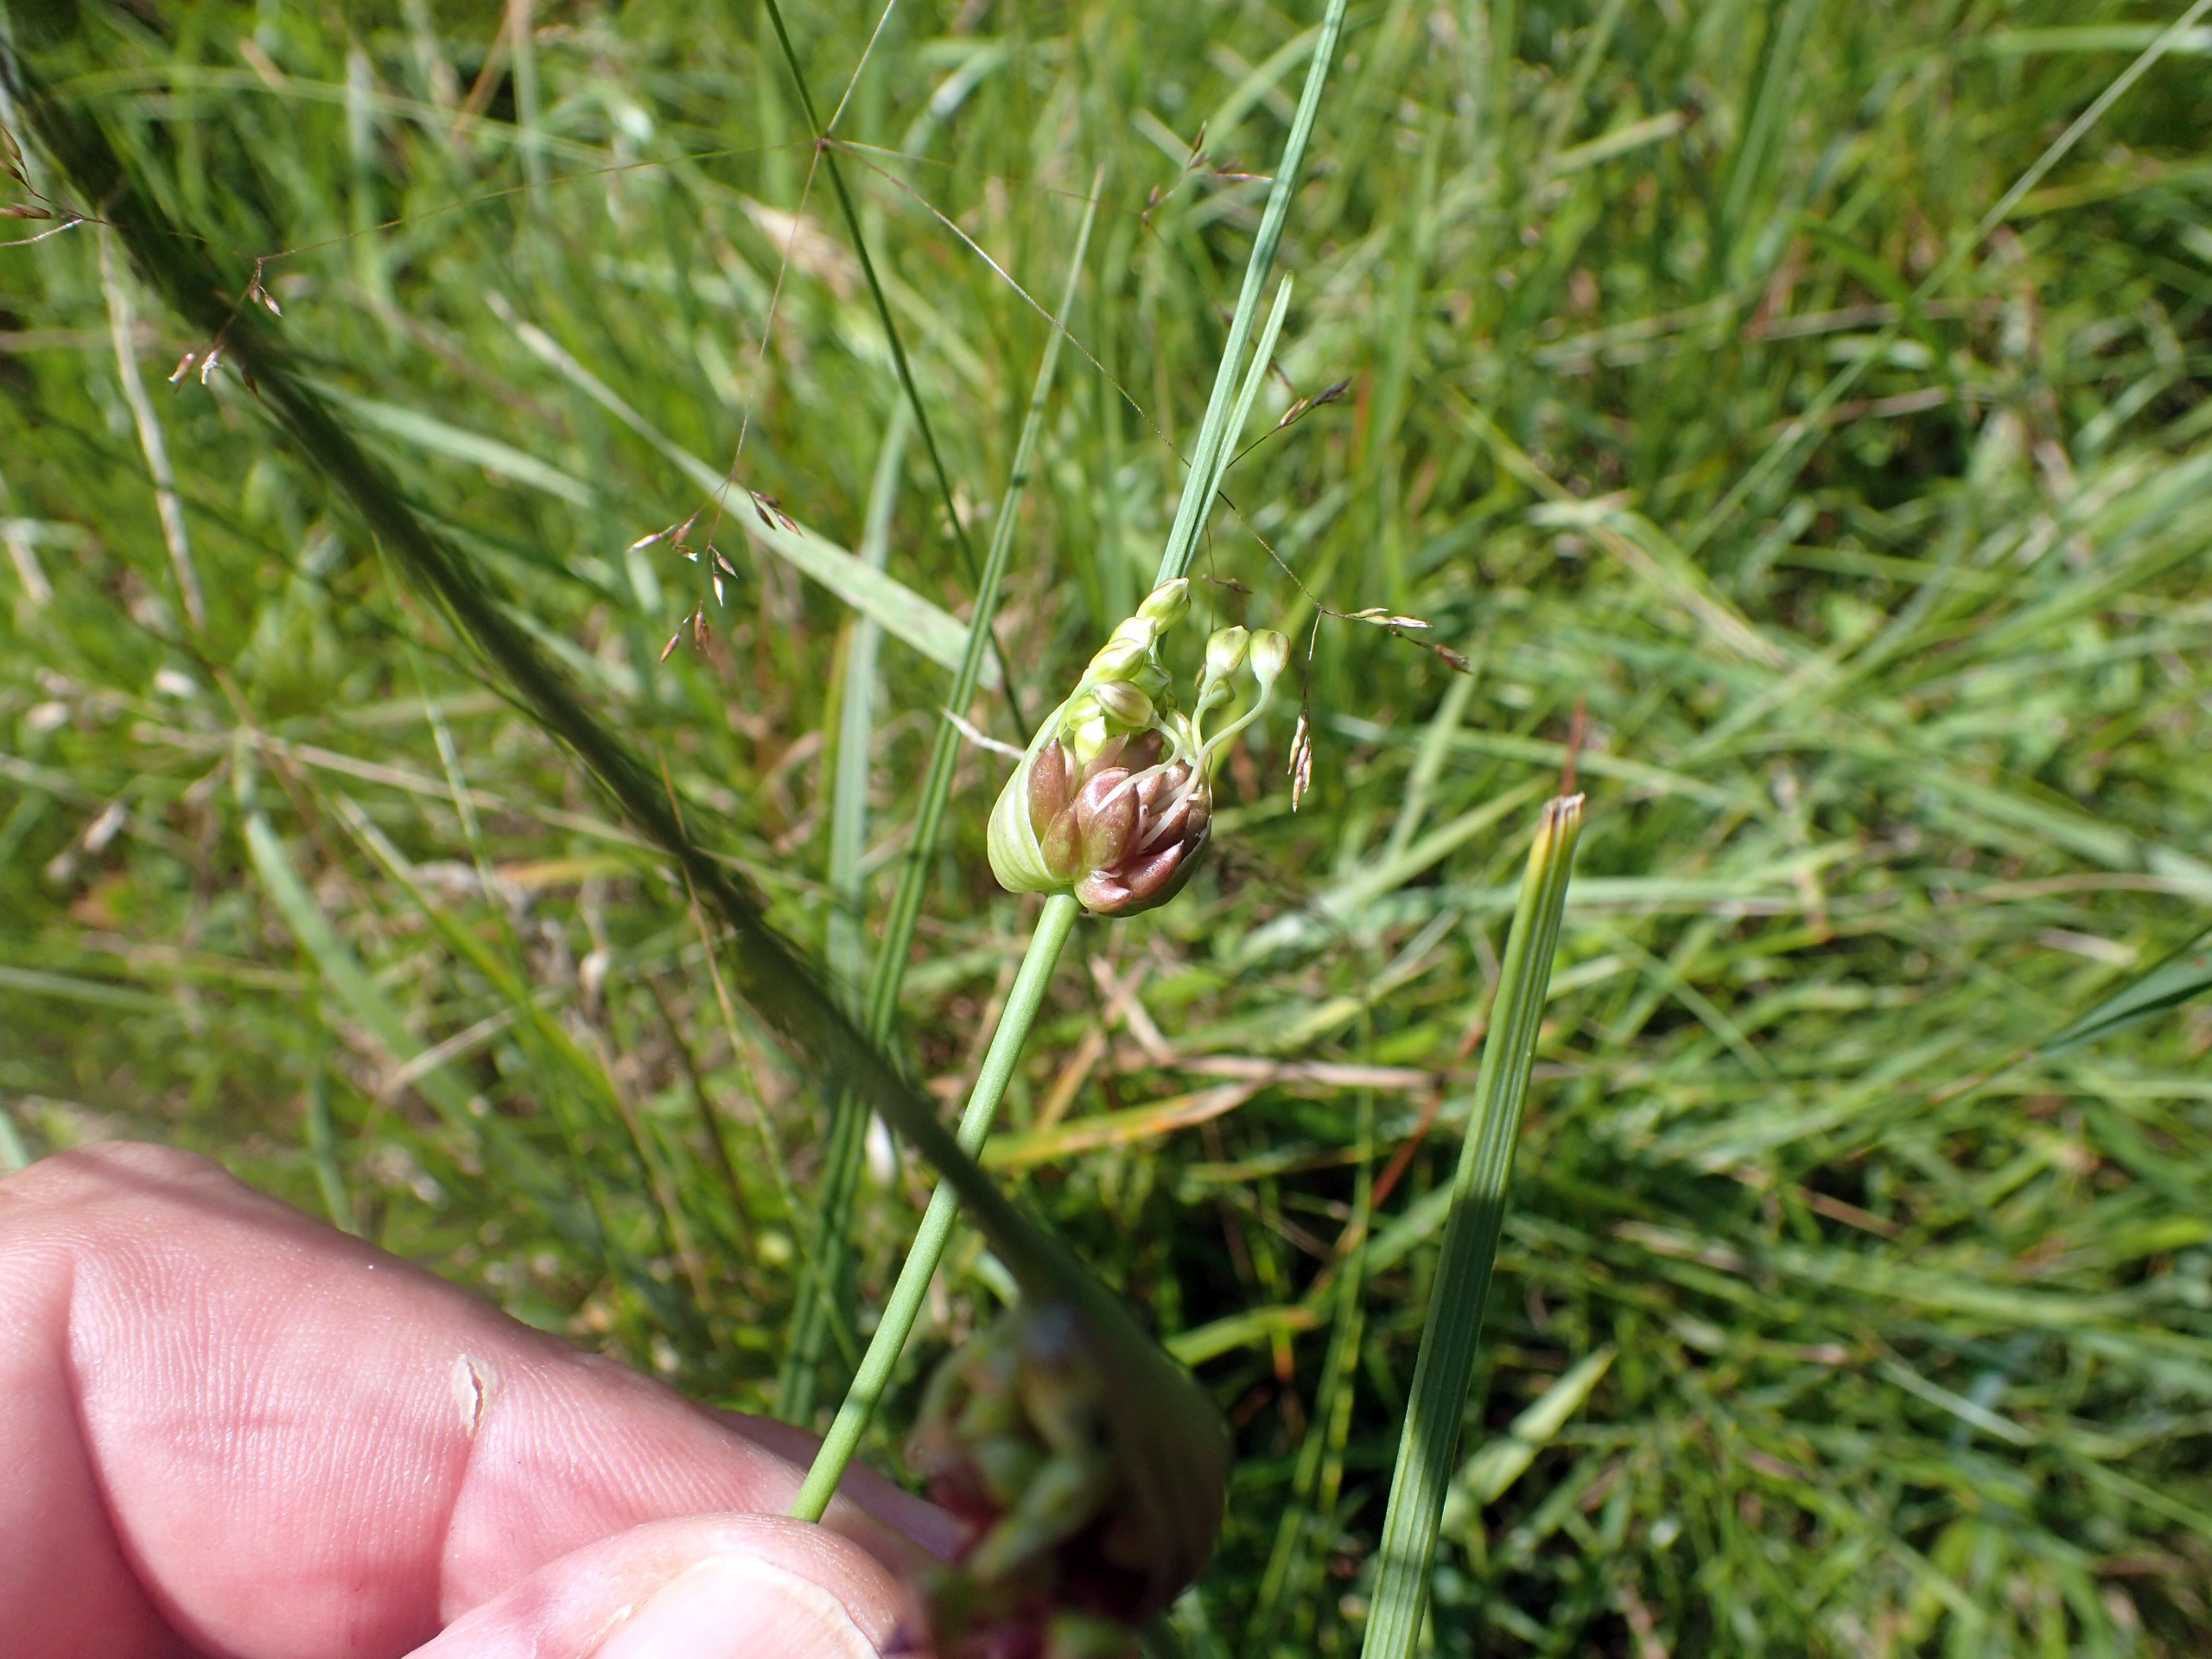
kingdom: Plantae
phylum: Tracheophyta
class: Liliopsida
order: Asparagales
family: Amaryllidaceae
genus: Allium
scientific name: Allium oleraceum
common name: Vild løg
